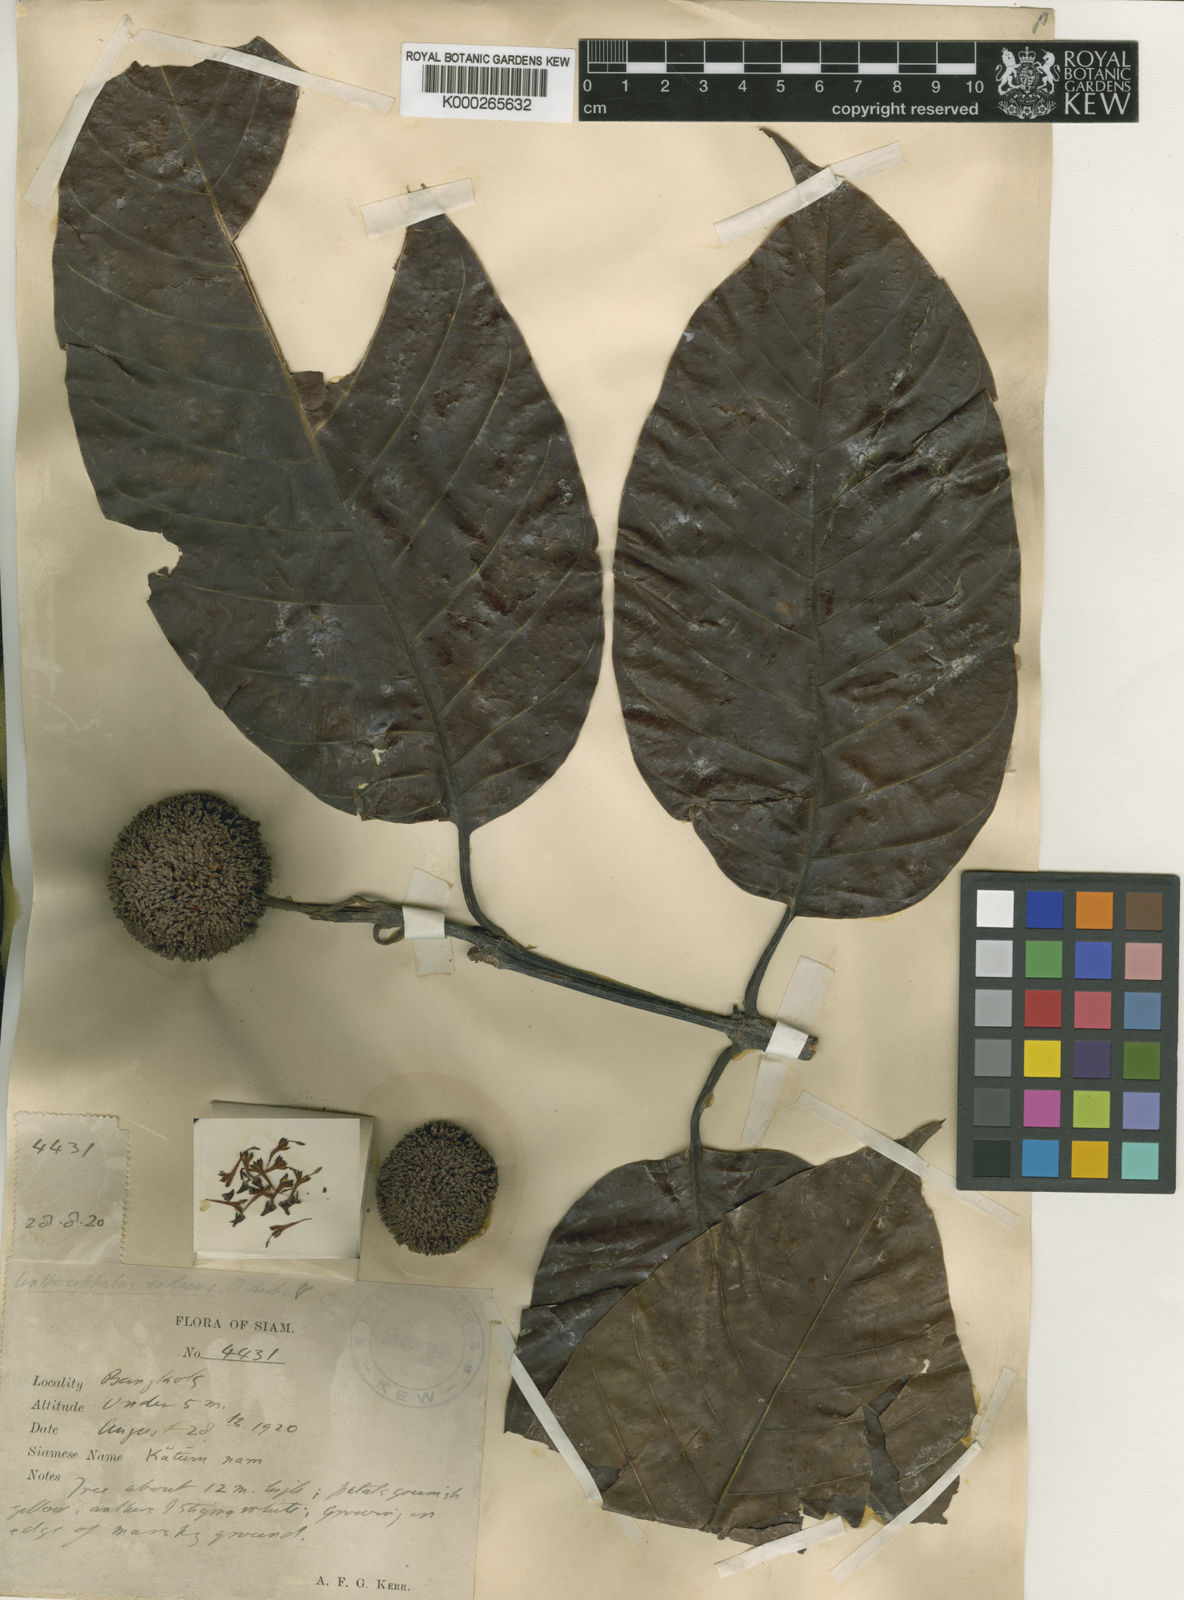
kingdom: Plantae
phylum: Tracheophyta
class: Magnoliopsida
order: Gentianales
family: Rubiaceae
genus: Neolamarckia
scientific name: Neolamarckia cadamba
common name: Leichhardt-pine
